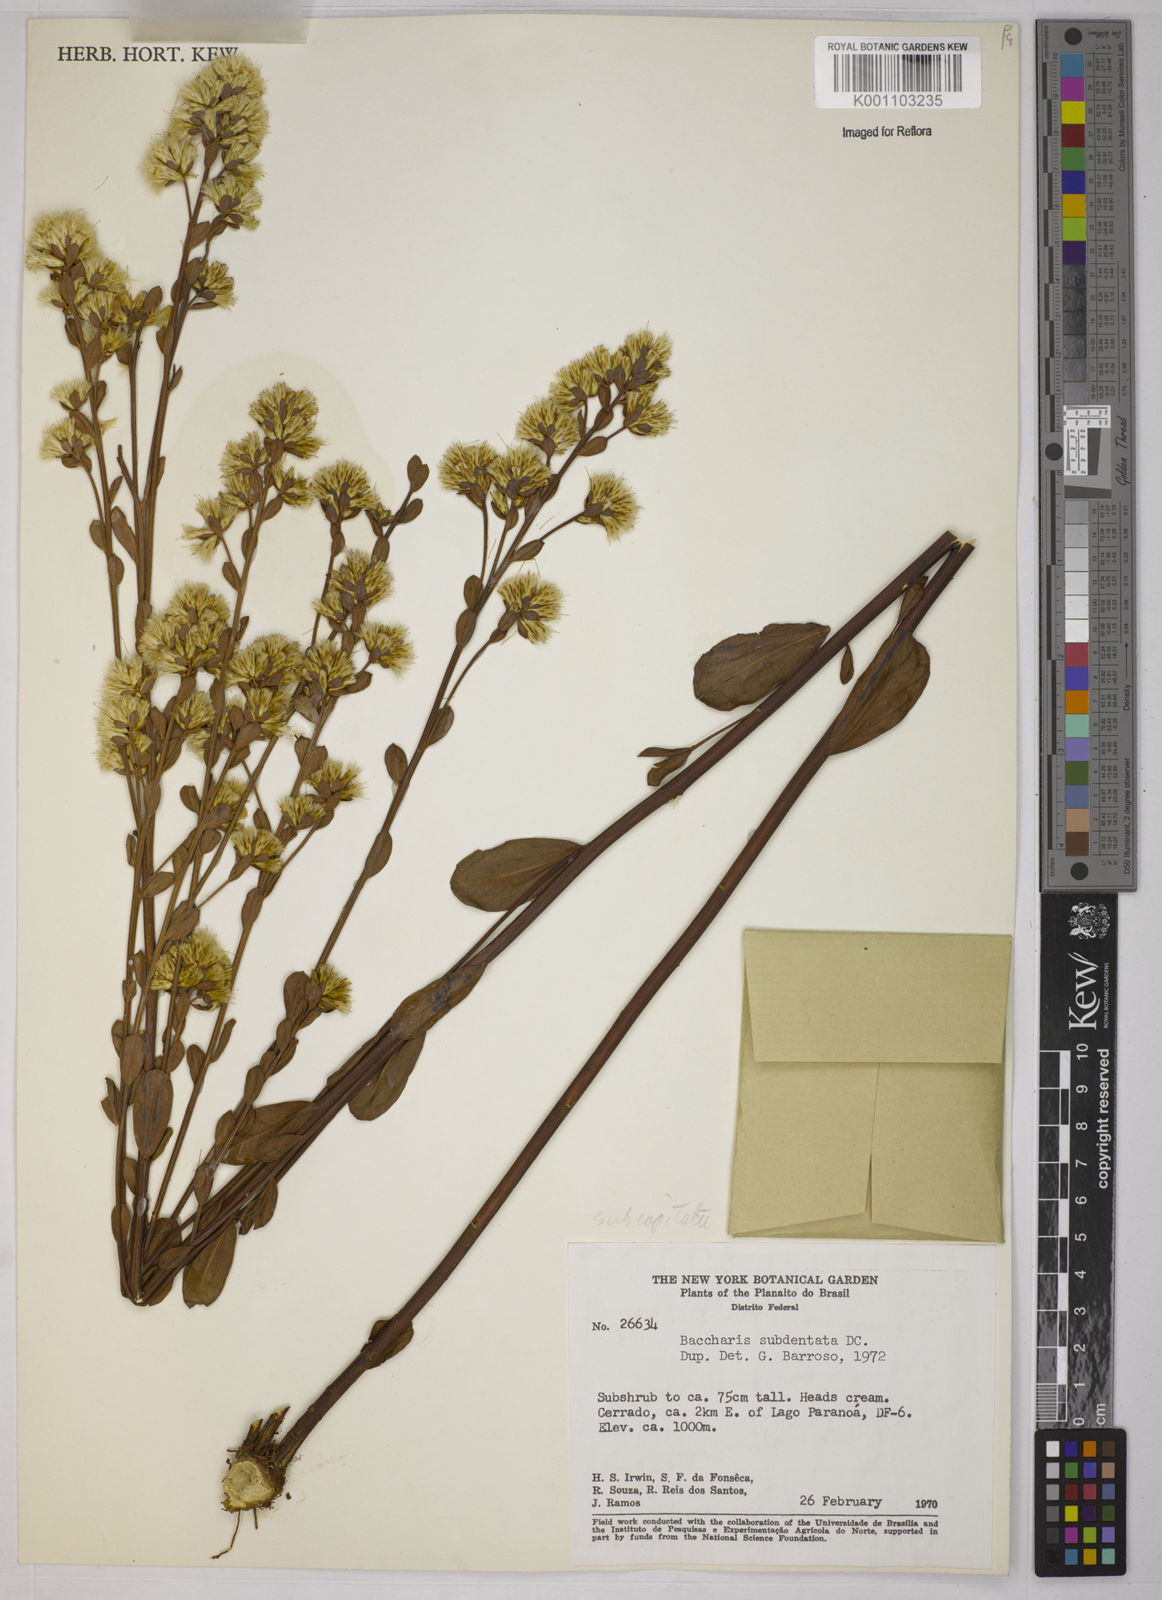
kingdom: Plantae
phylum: Tracheophyta
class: Magnoliopsida
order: Asterales
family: Asteraceae
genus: Baccharis
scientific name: Baccharis subdentata
